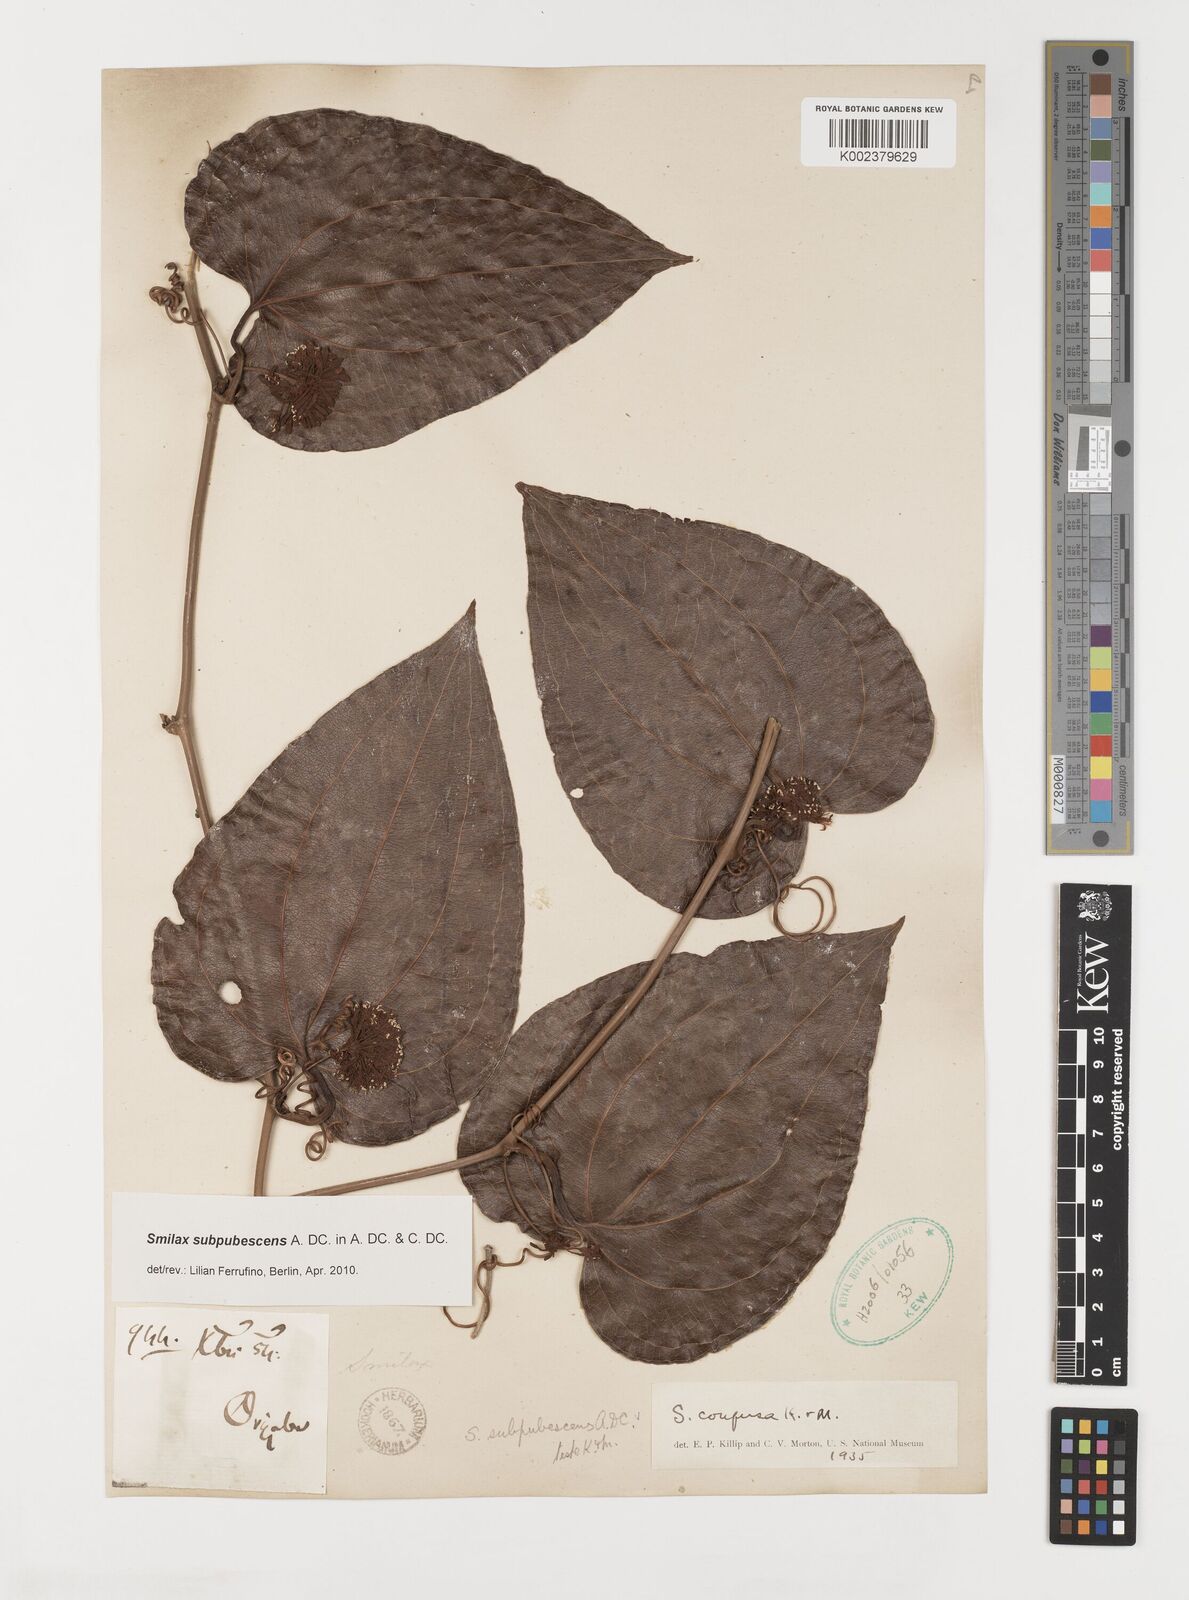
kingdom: Plantae
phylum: Tracheophyta
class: Liliopsida
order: Liliales
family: Smilacaceae
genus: Smilax
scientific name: Smilax subpubescens
